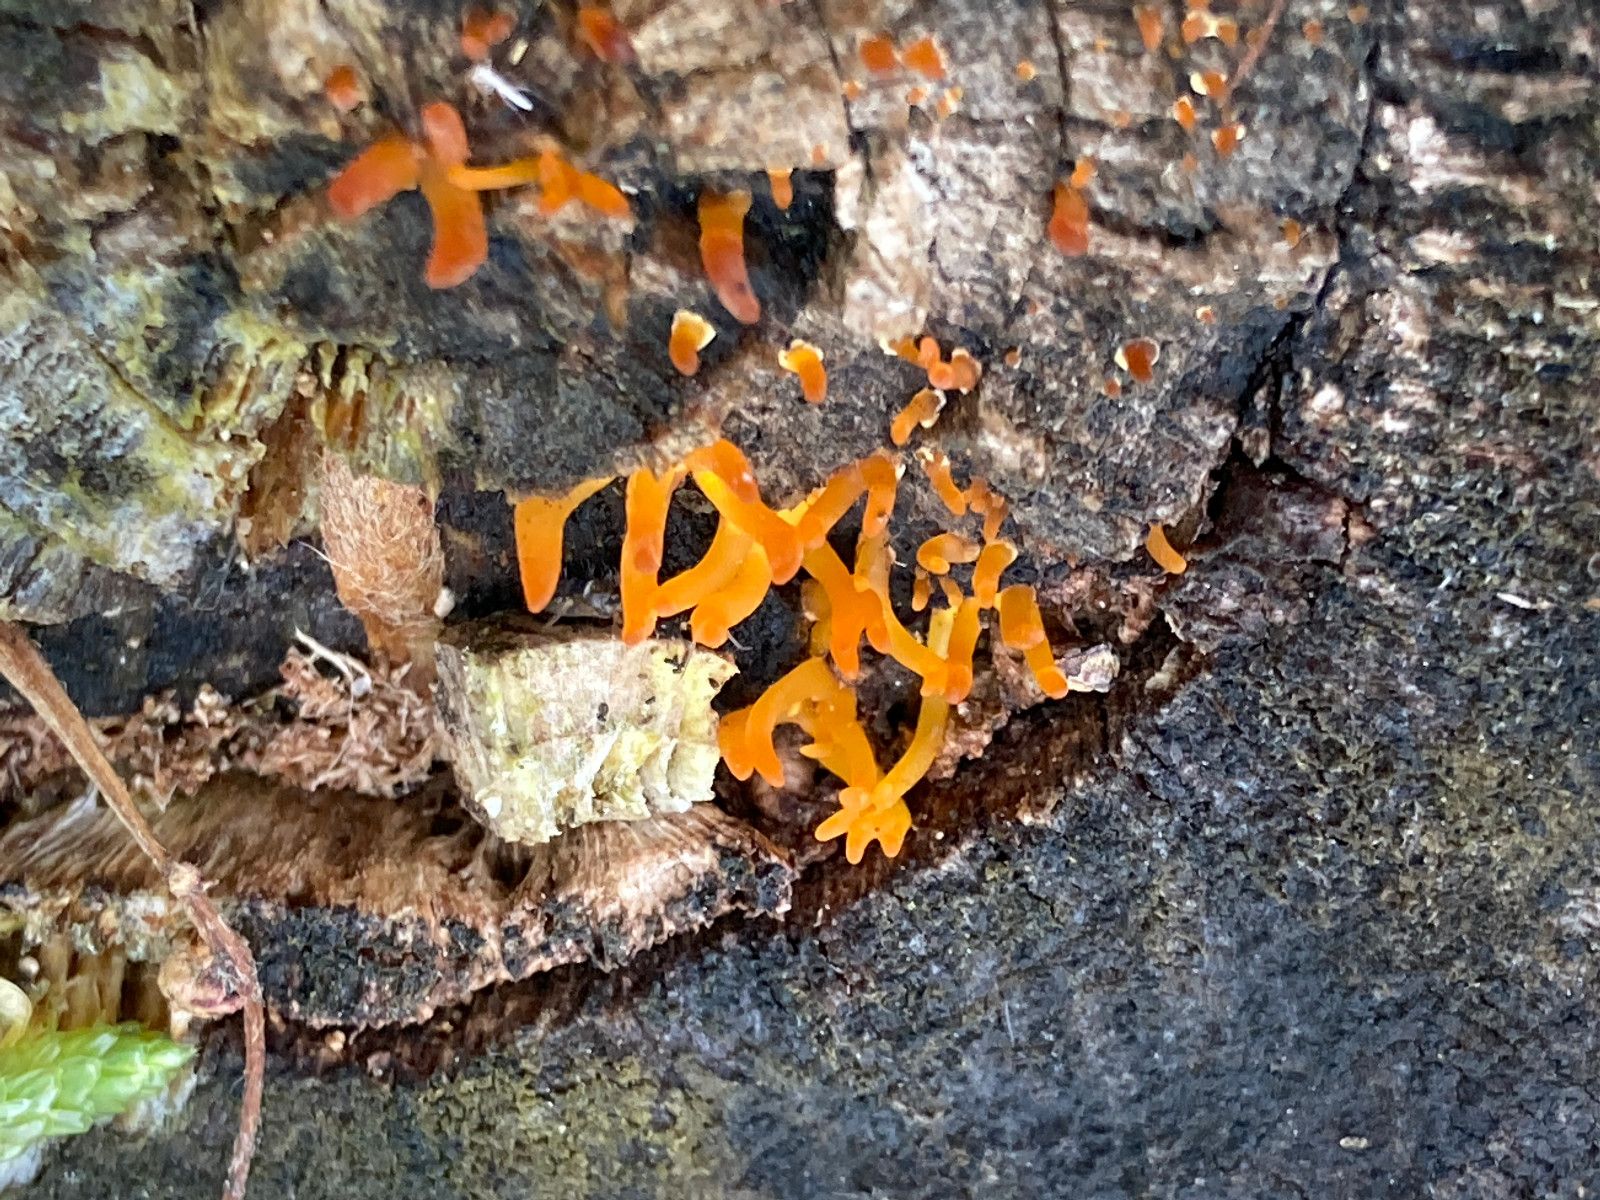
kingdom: Fungi
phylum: Basidiomycota
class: Dacrymycetes
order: Dacrymycetales
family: Dacrymycetaceae
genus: Calocera
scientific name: Calocera cornea
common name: liden guldgaffel
